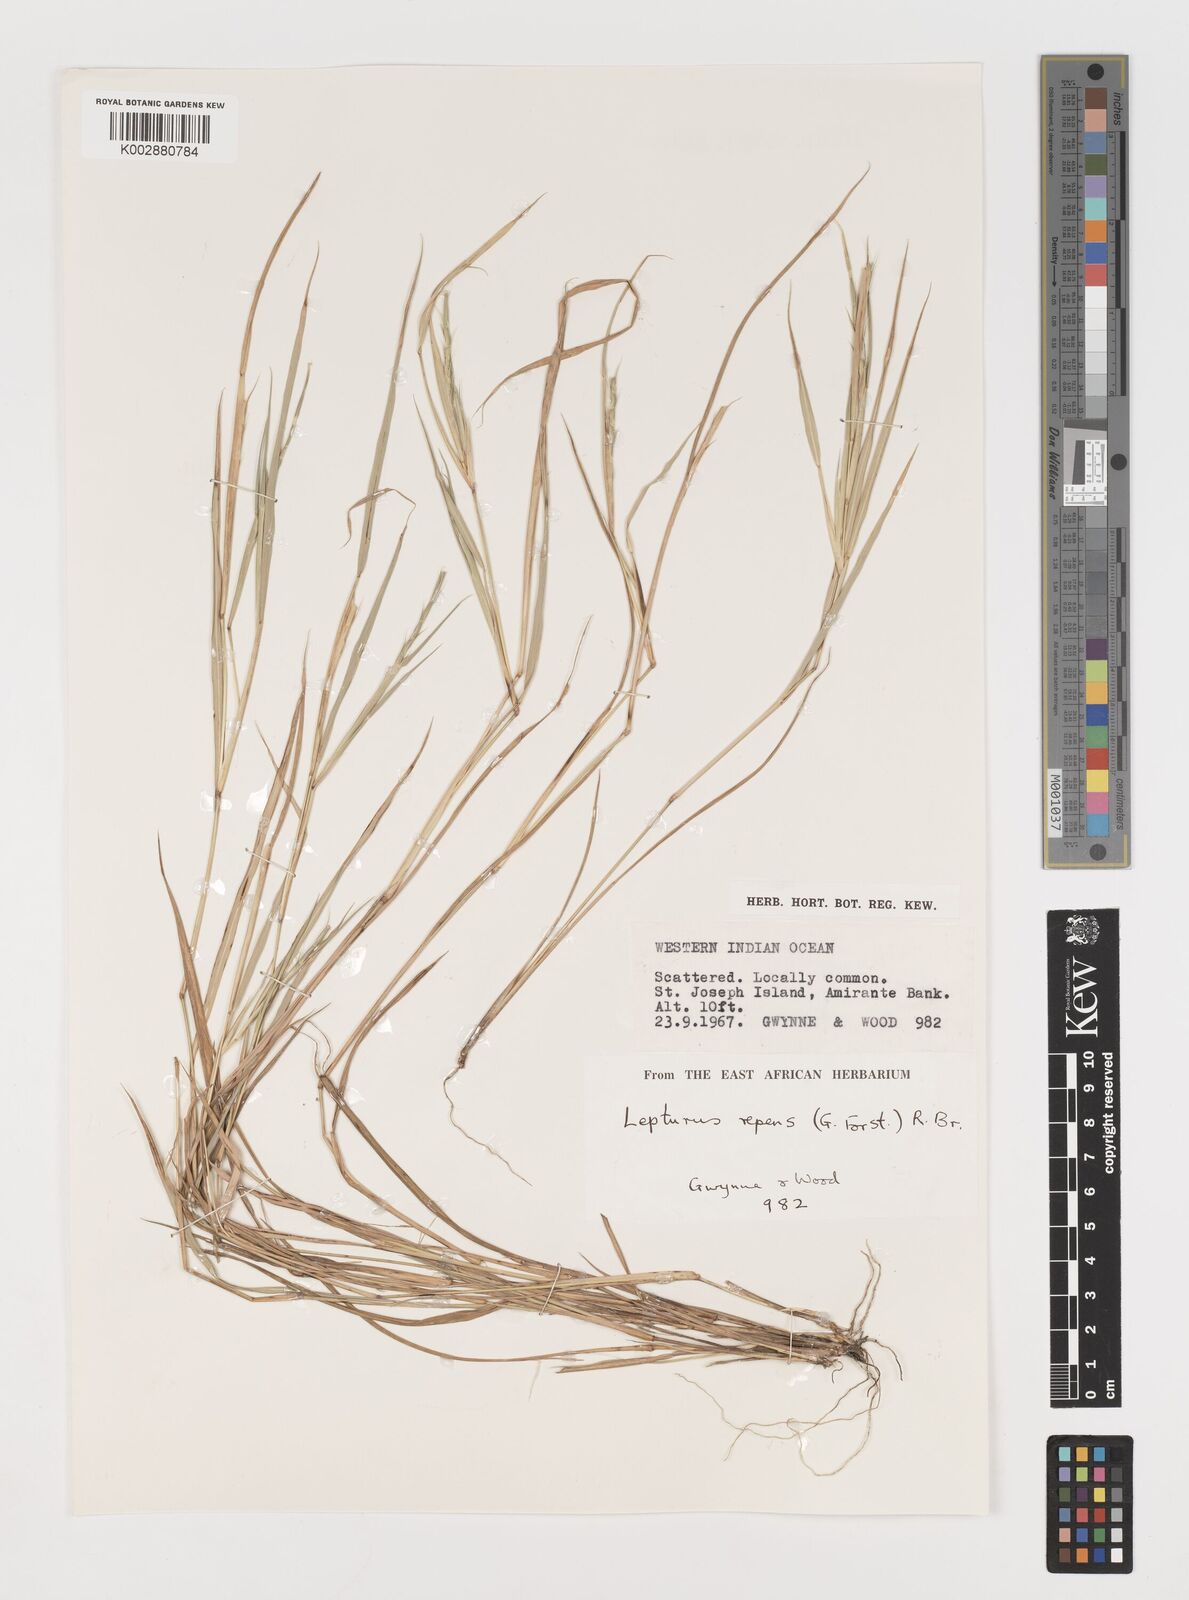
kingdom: Plantae
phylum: Tracheophyta
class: Liliopsida
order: Poales
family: Poaceae
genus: Lepturus
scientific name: Lepturus repens
